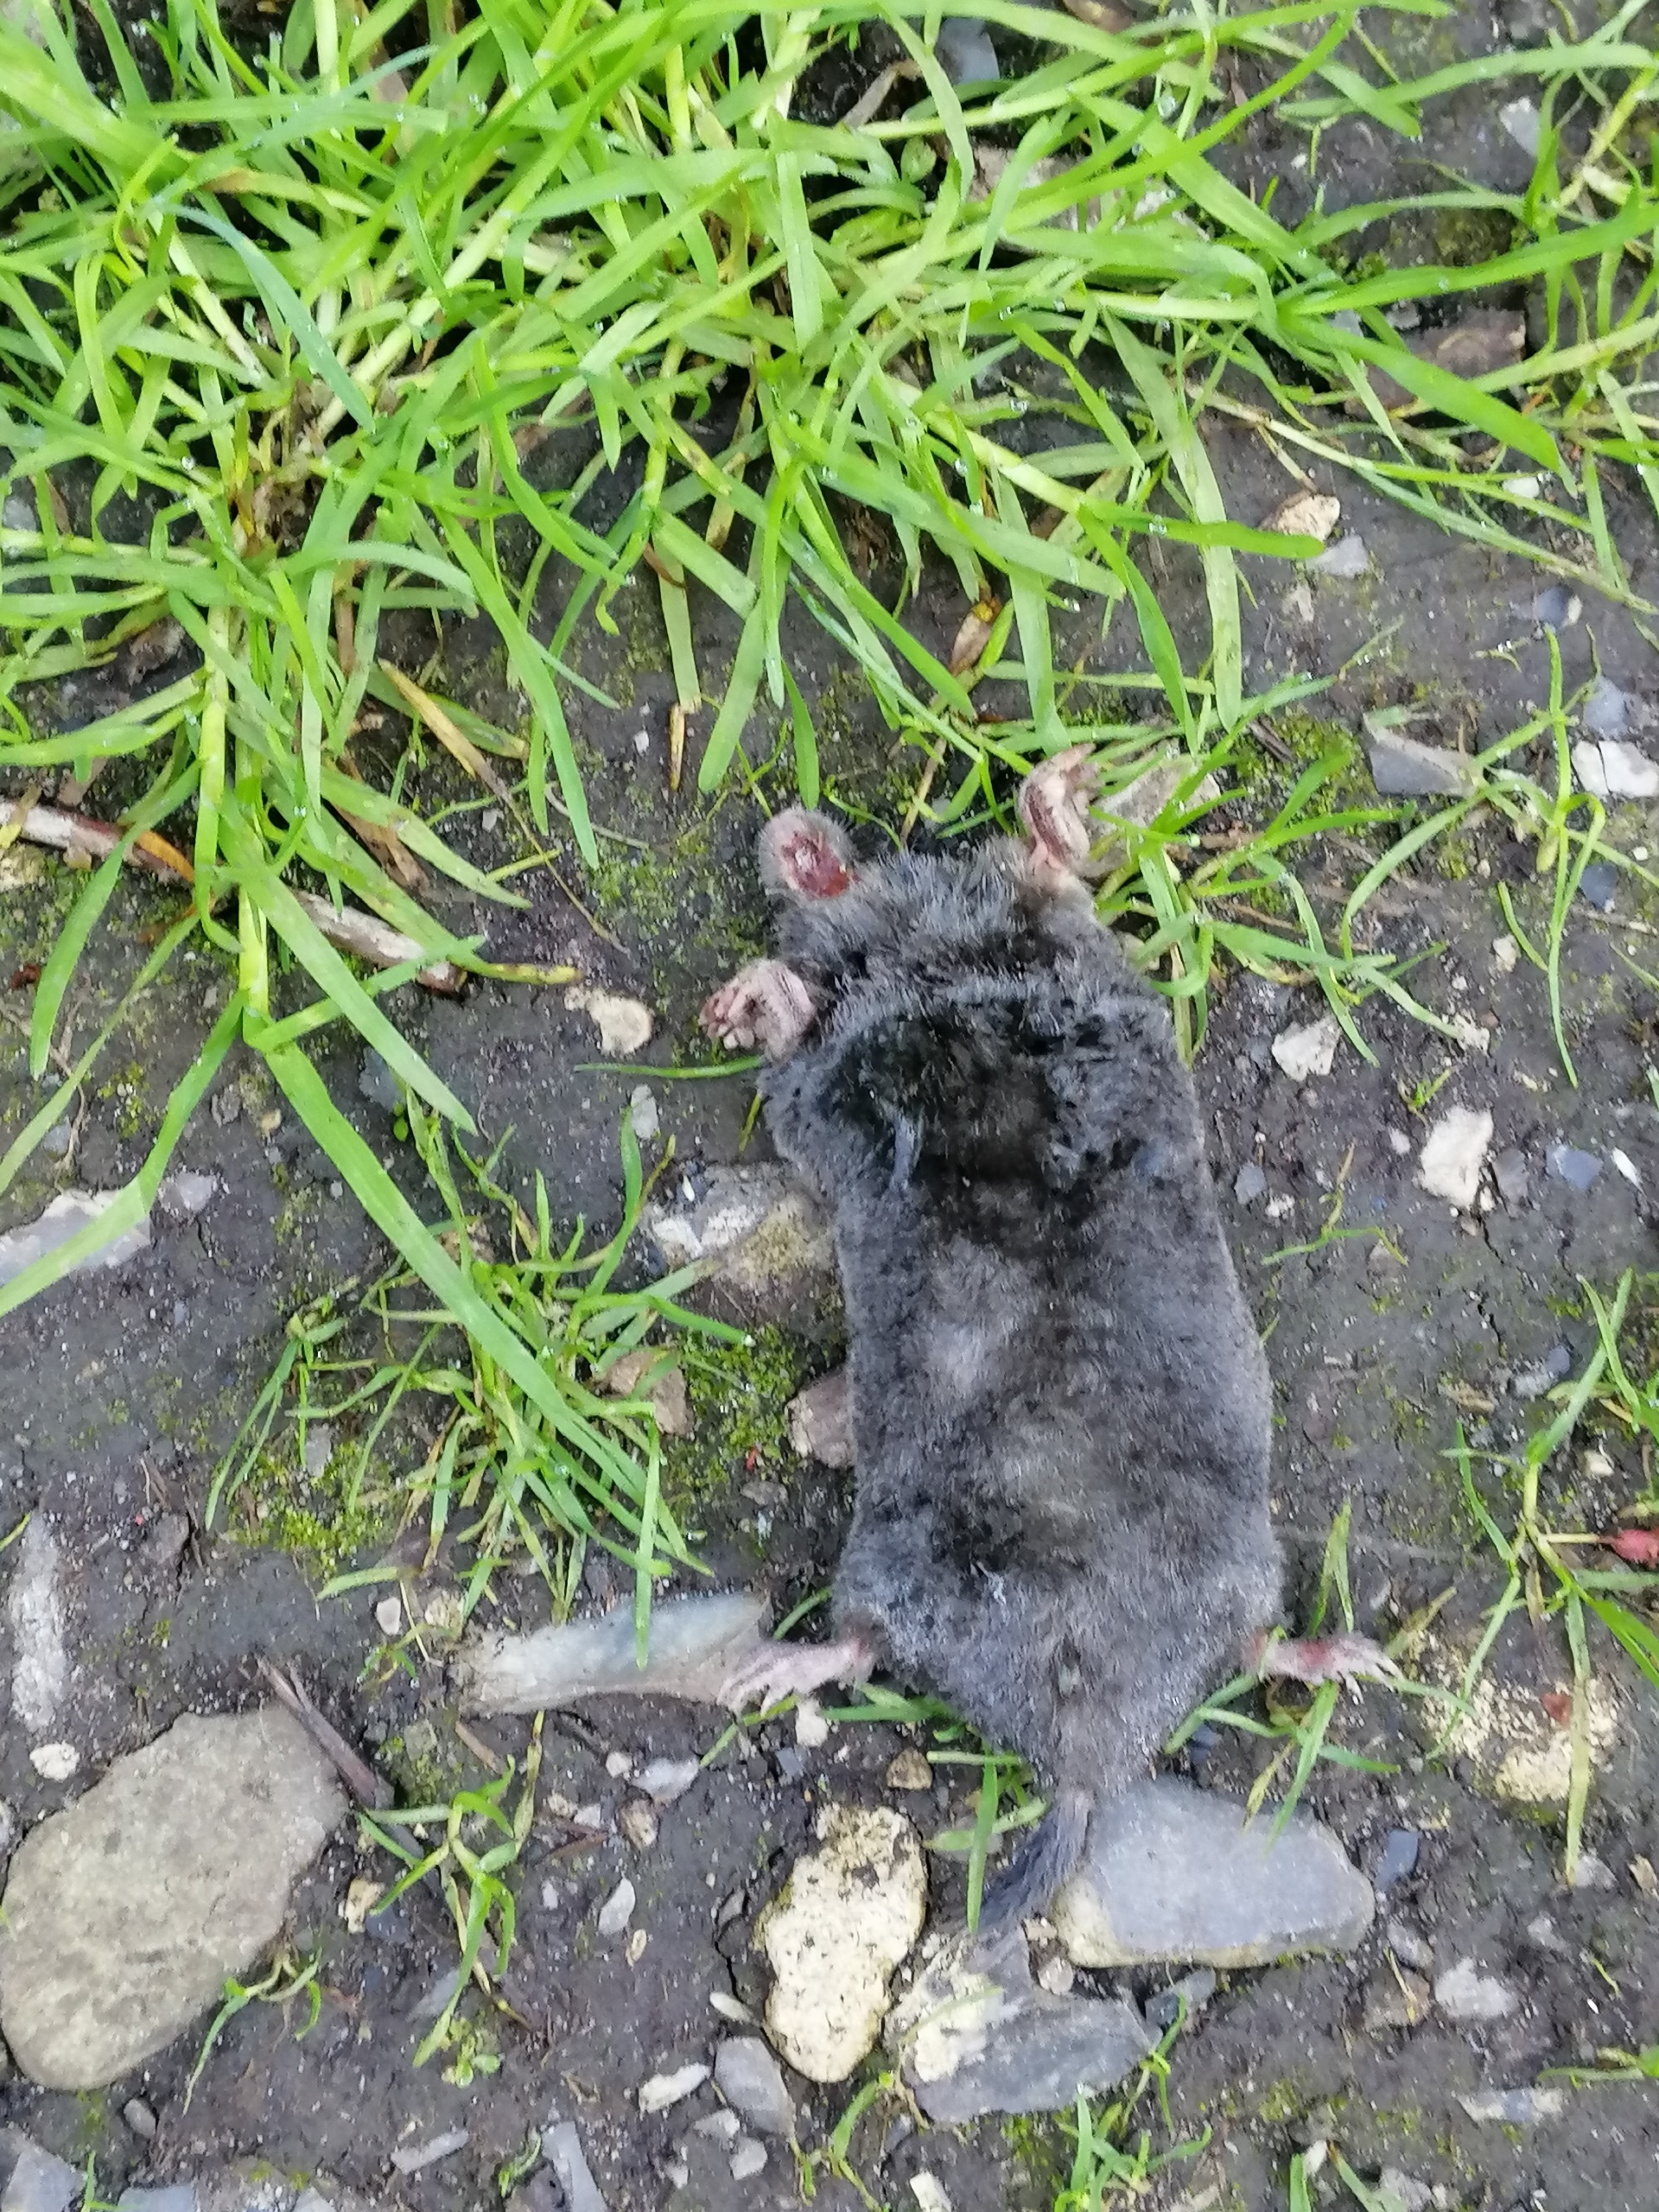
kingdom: Animalia
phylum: Chordata
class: Mammalia
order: Soricomorpha
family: Talpidae
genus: Talpa
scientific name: Talpa europaea
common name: Muldvarp
